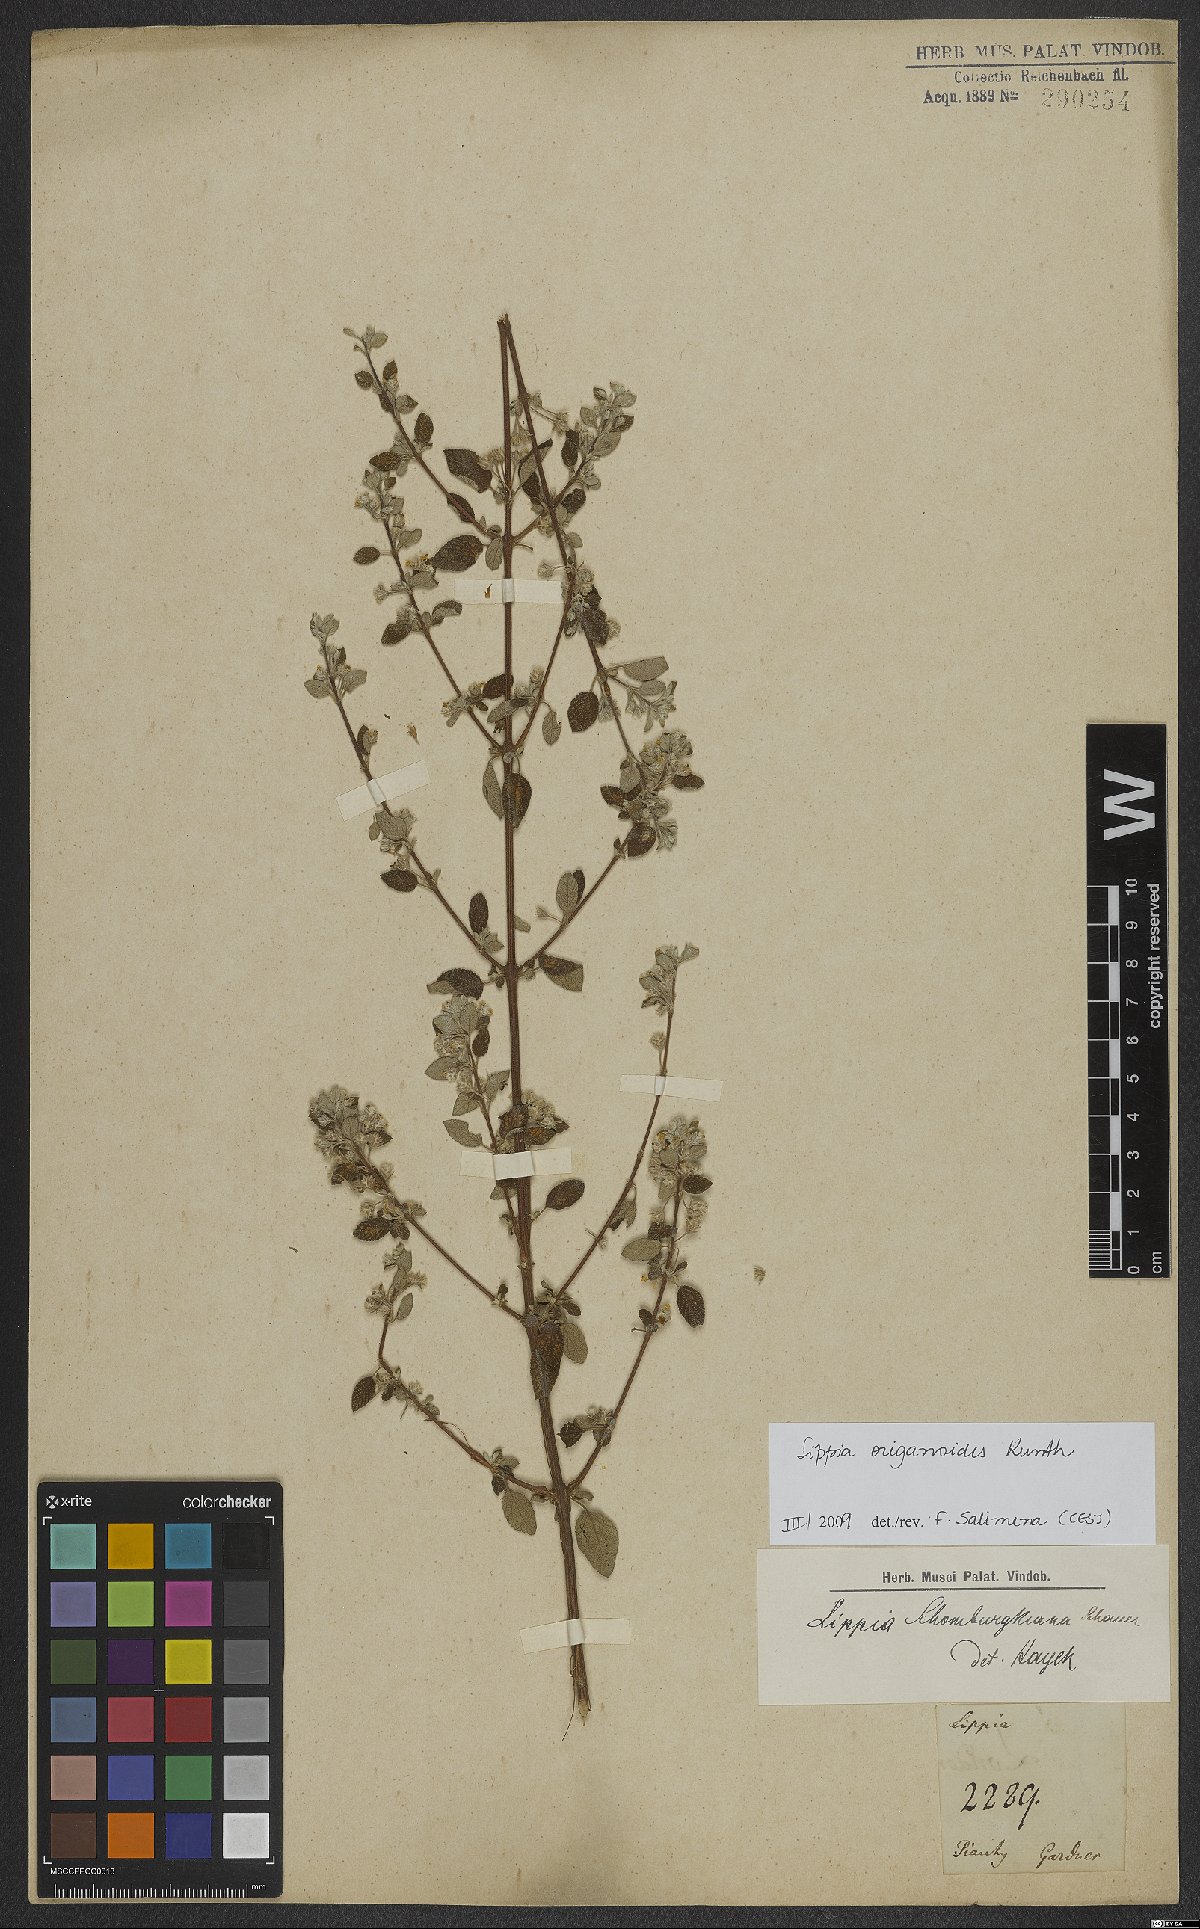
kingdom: Plantae
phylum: Tracheophyta
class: Magnoliopsida
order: Lamiales
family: Verbenaceae
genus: Lippia
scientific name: Lippia origanoides
